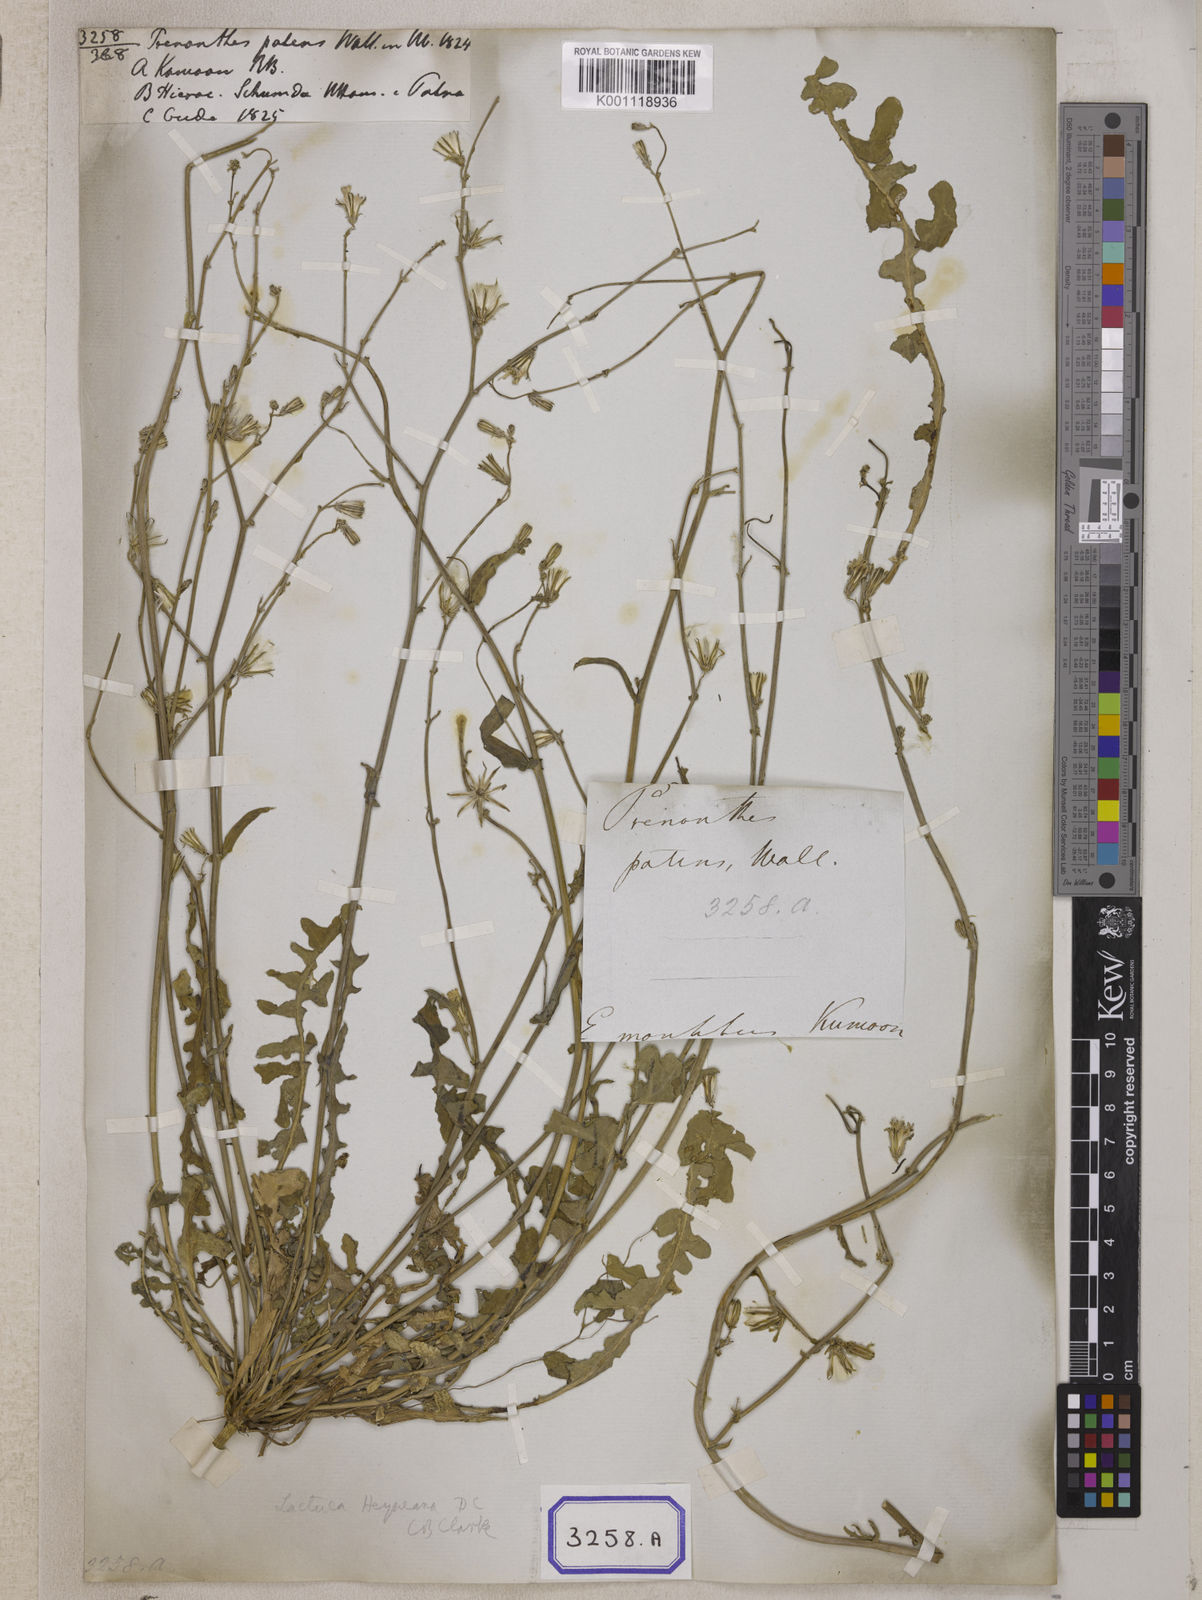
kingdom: Plantae
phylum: Tracheophyta
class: Magnoliopsida
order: Asterales
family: Asteraceae
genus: Launaea
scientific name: Launaea procumbens
